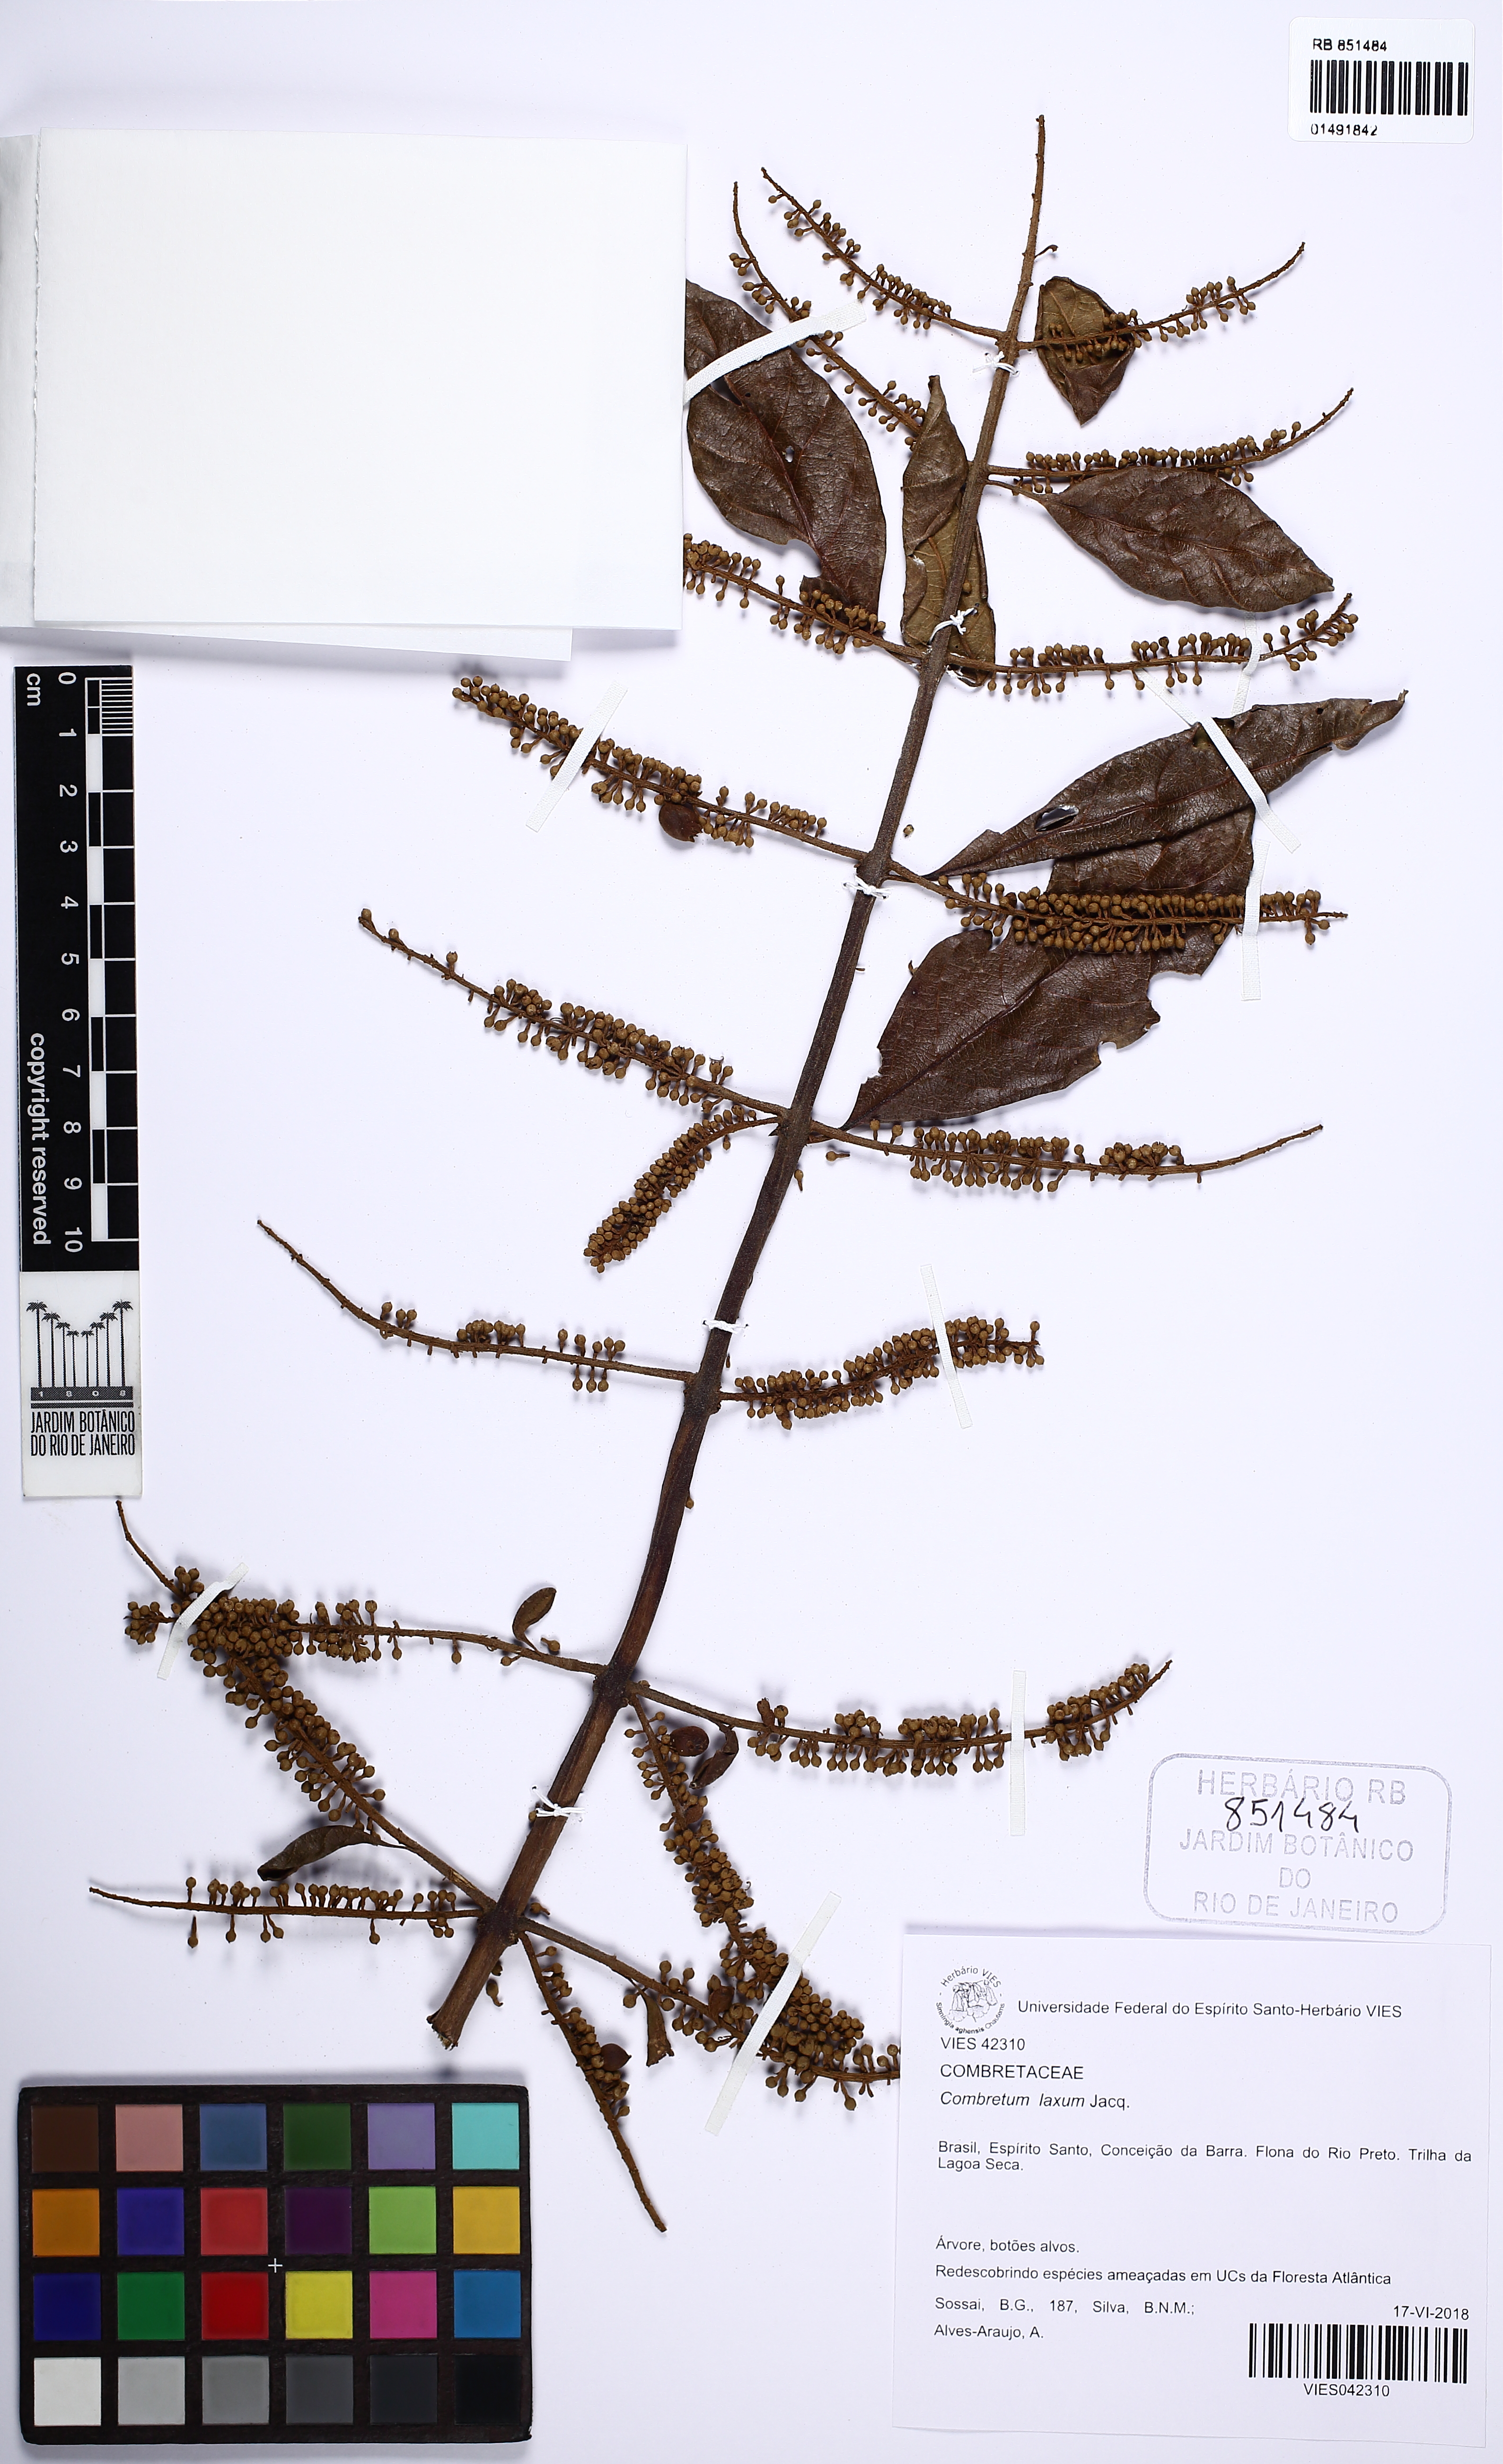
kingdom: Plantae
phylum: Tracheophyta
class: Magnoliopsida
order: Myrtales
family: Combretaceae
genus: Combretum
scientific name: Combretum laxum
